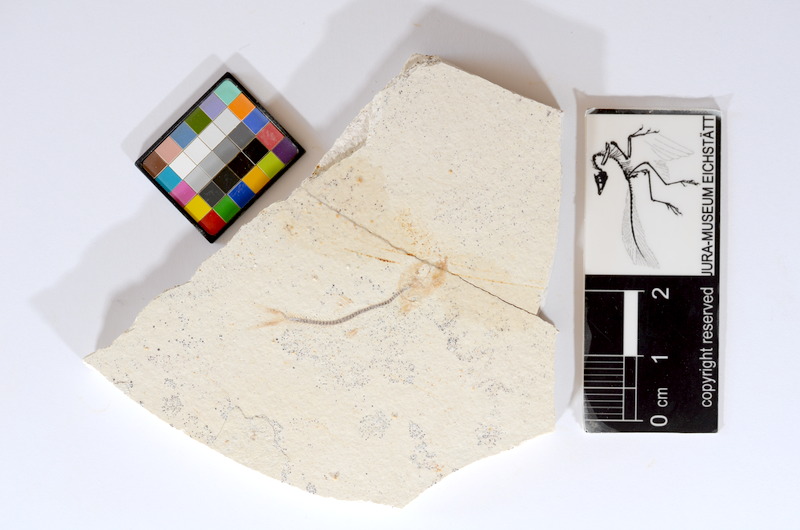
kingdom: Animalia
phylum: Chordata
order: Salmoniformes
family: Orthogonikleithridae
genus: Orthogonikleithrus
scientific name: Orthogonikleithrus hoelli
